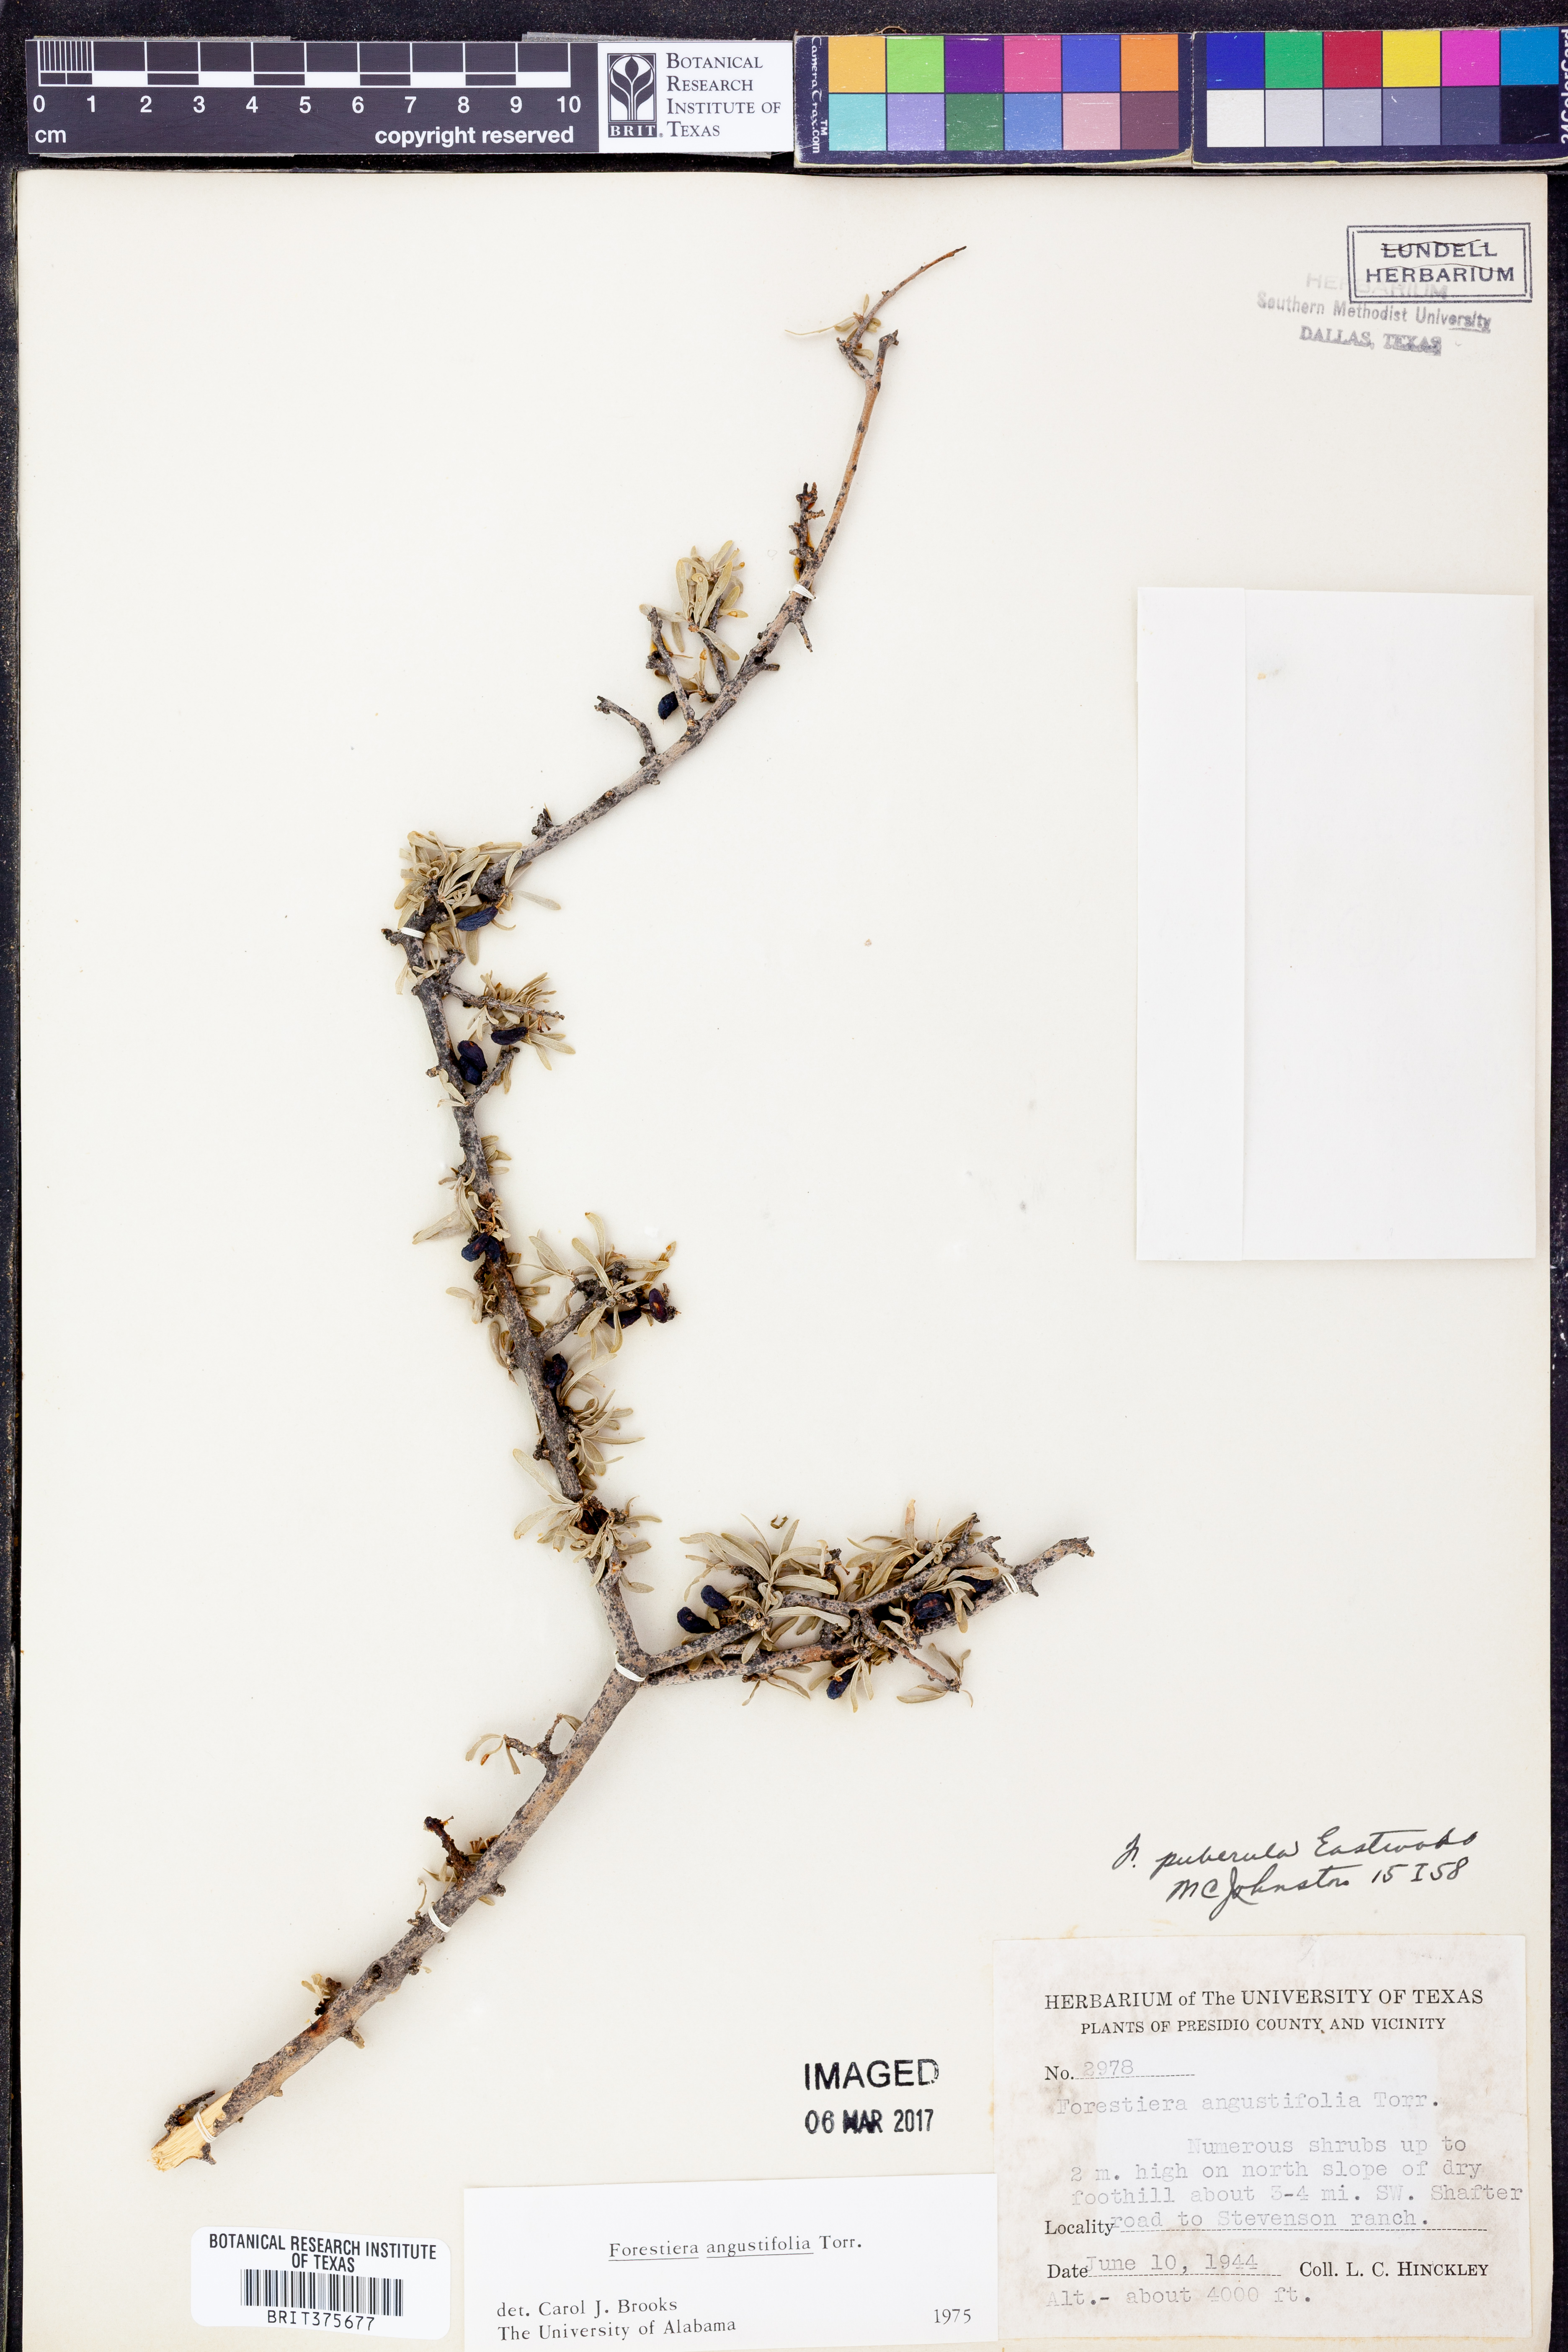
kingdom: Plantae
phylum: Tracheophyta
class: Magnoliopsida
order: Lamiales
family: Oleaceae
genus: Forestiera
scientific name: Forestiera angustifolia
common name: Elbowbush
